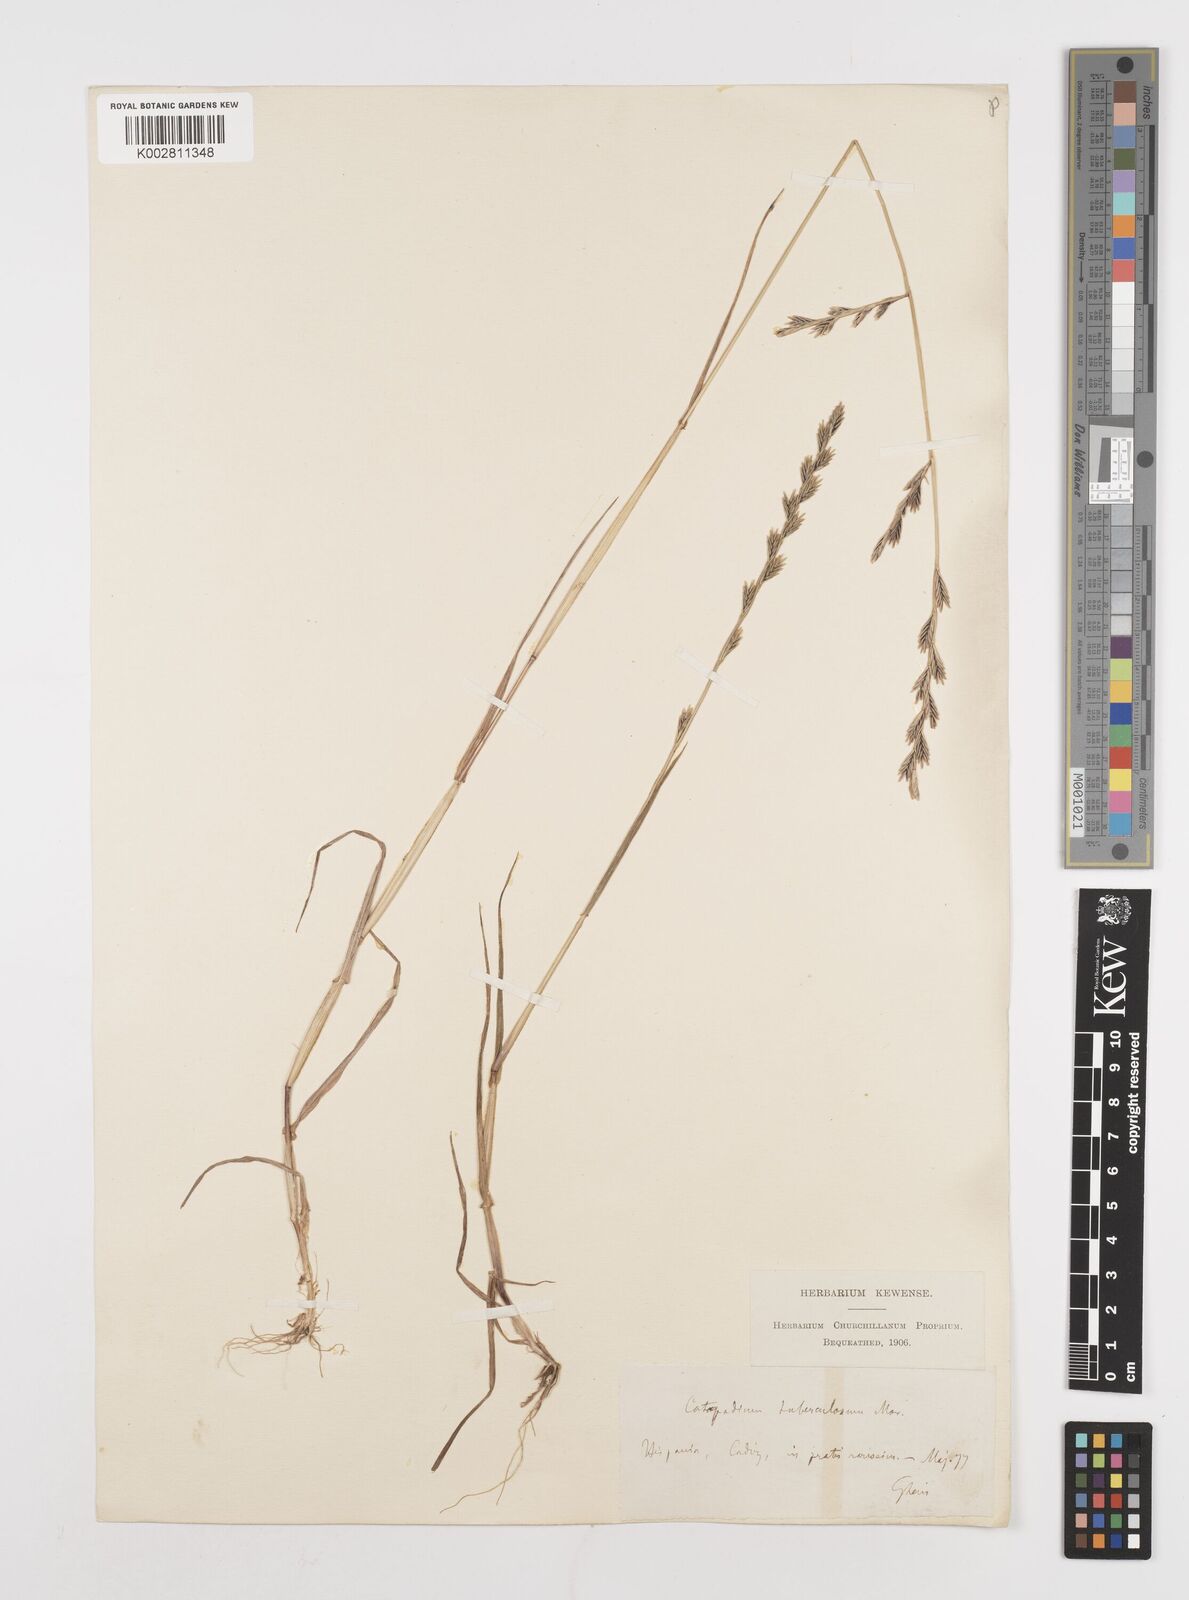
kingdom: Plantae
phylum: Tracheophyta
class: Liliopsida
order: Poales
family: Poaceae
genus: Castellia
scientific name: Castellia tuberculosa
